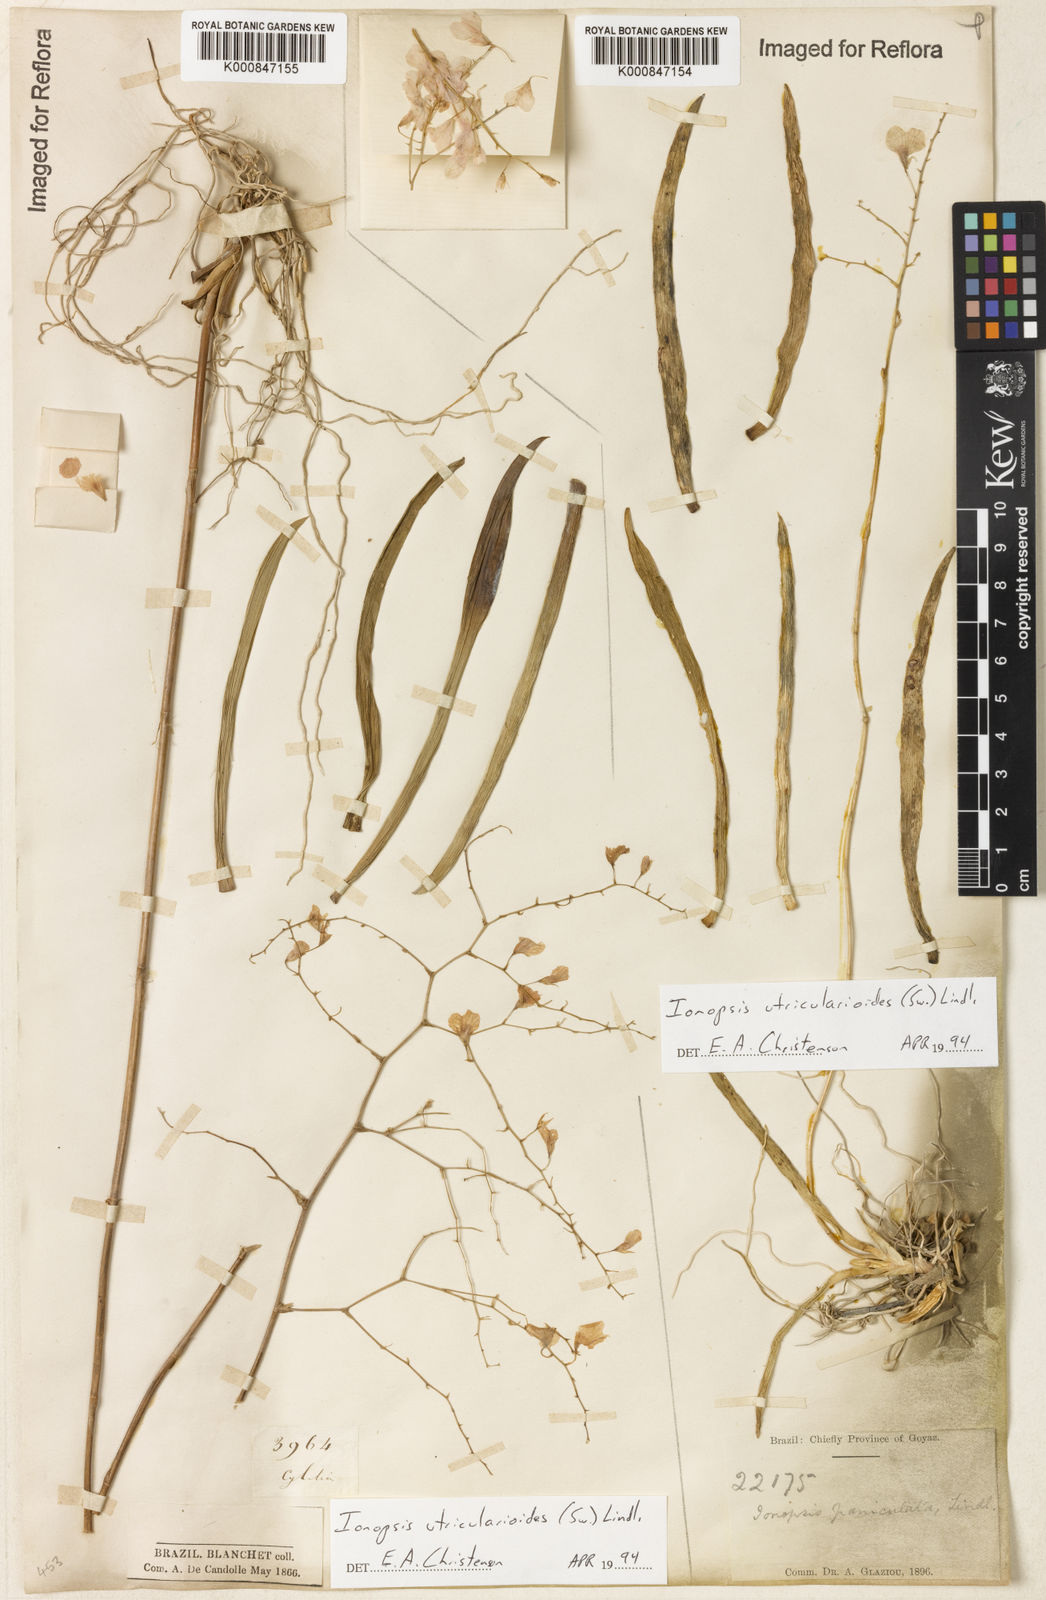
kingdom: Plantae
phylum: Tracheophyta
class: Liliopsida
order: Asparagales
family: Orchidaceae
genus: Ionopsis
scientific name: Ionopsis utricularioides
